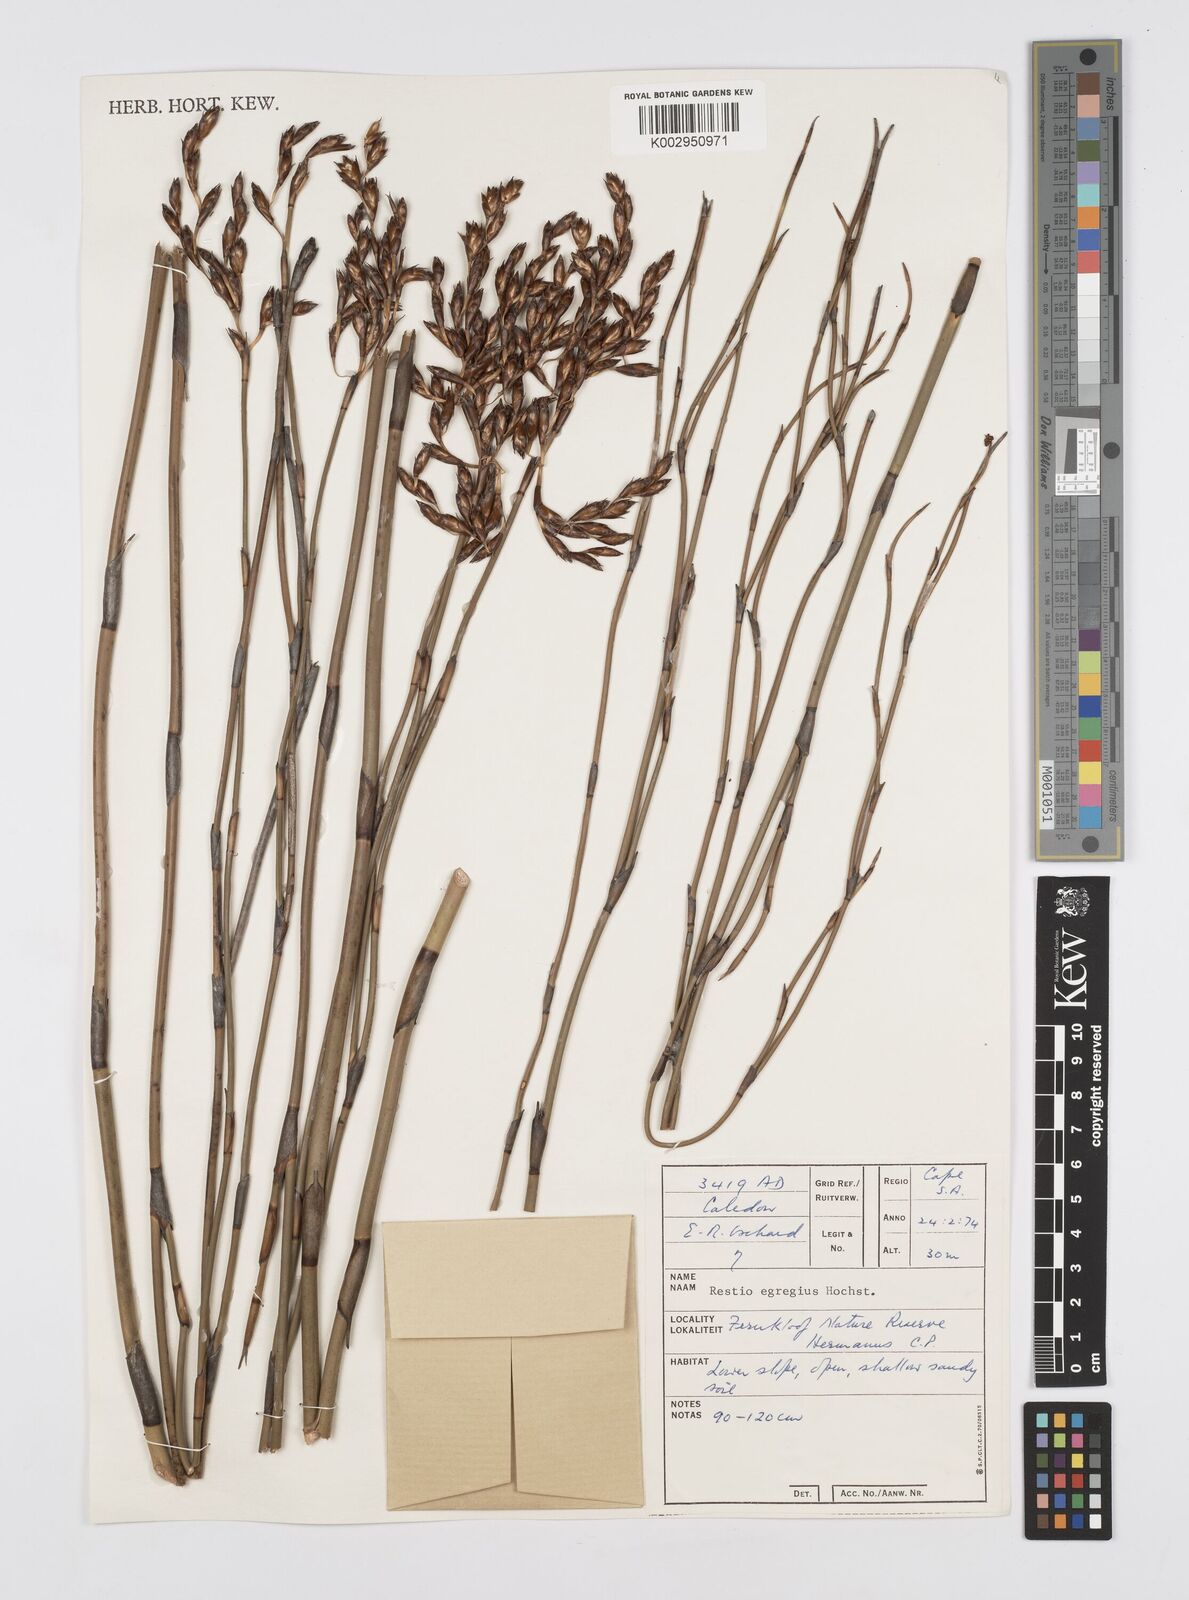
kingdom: Plantae
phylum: Tracheophyta
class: Liliopsida
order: Poales
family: Restionaceae
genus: Restio
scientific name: Restio egregius
